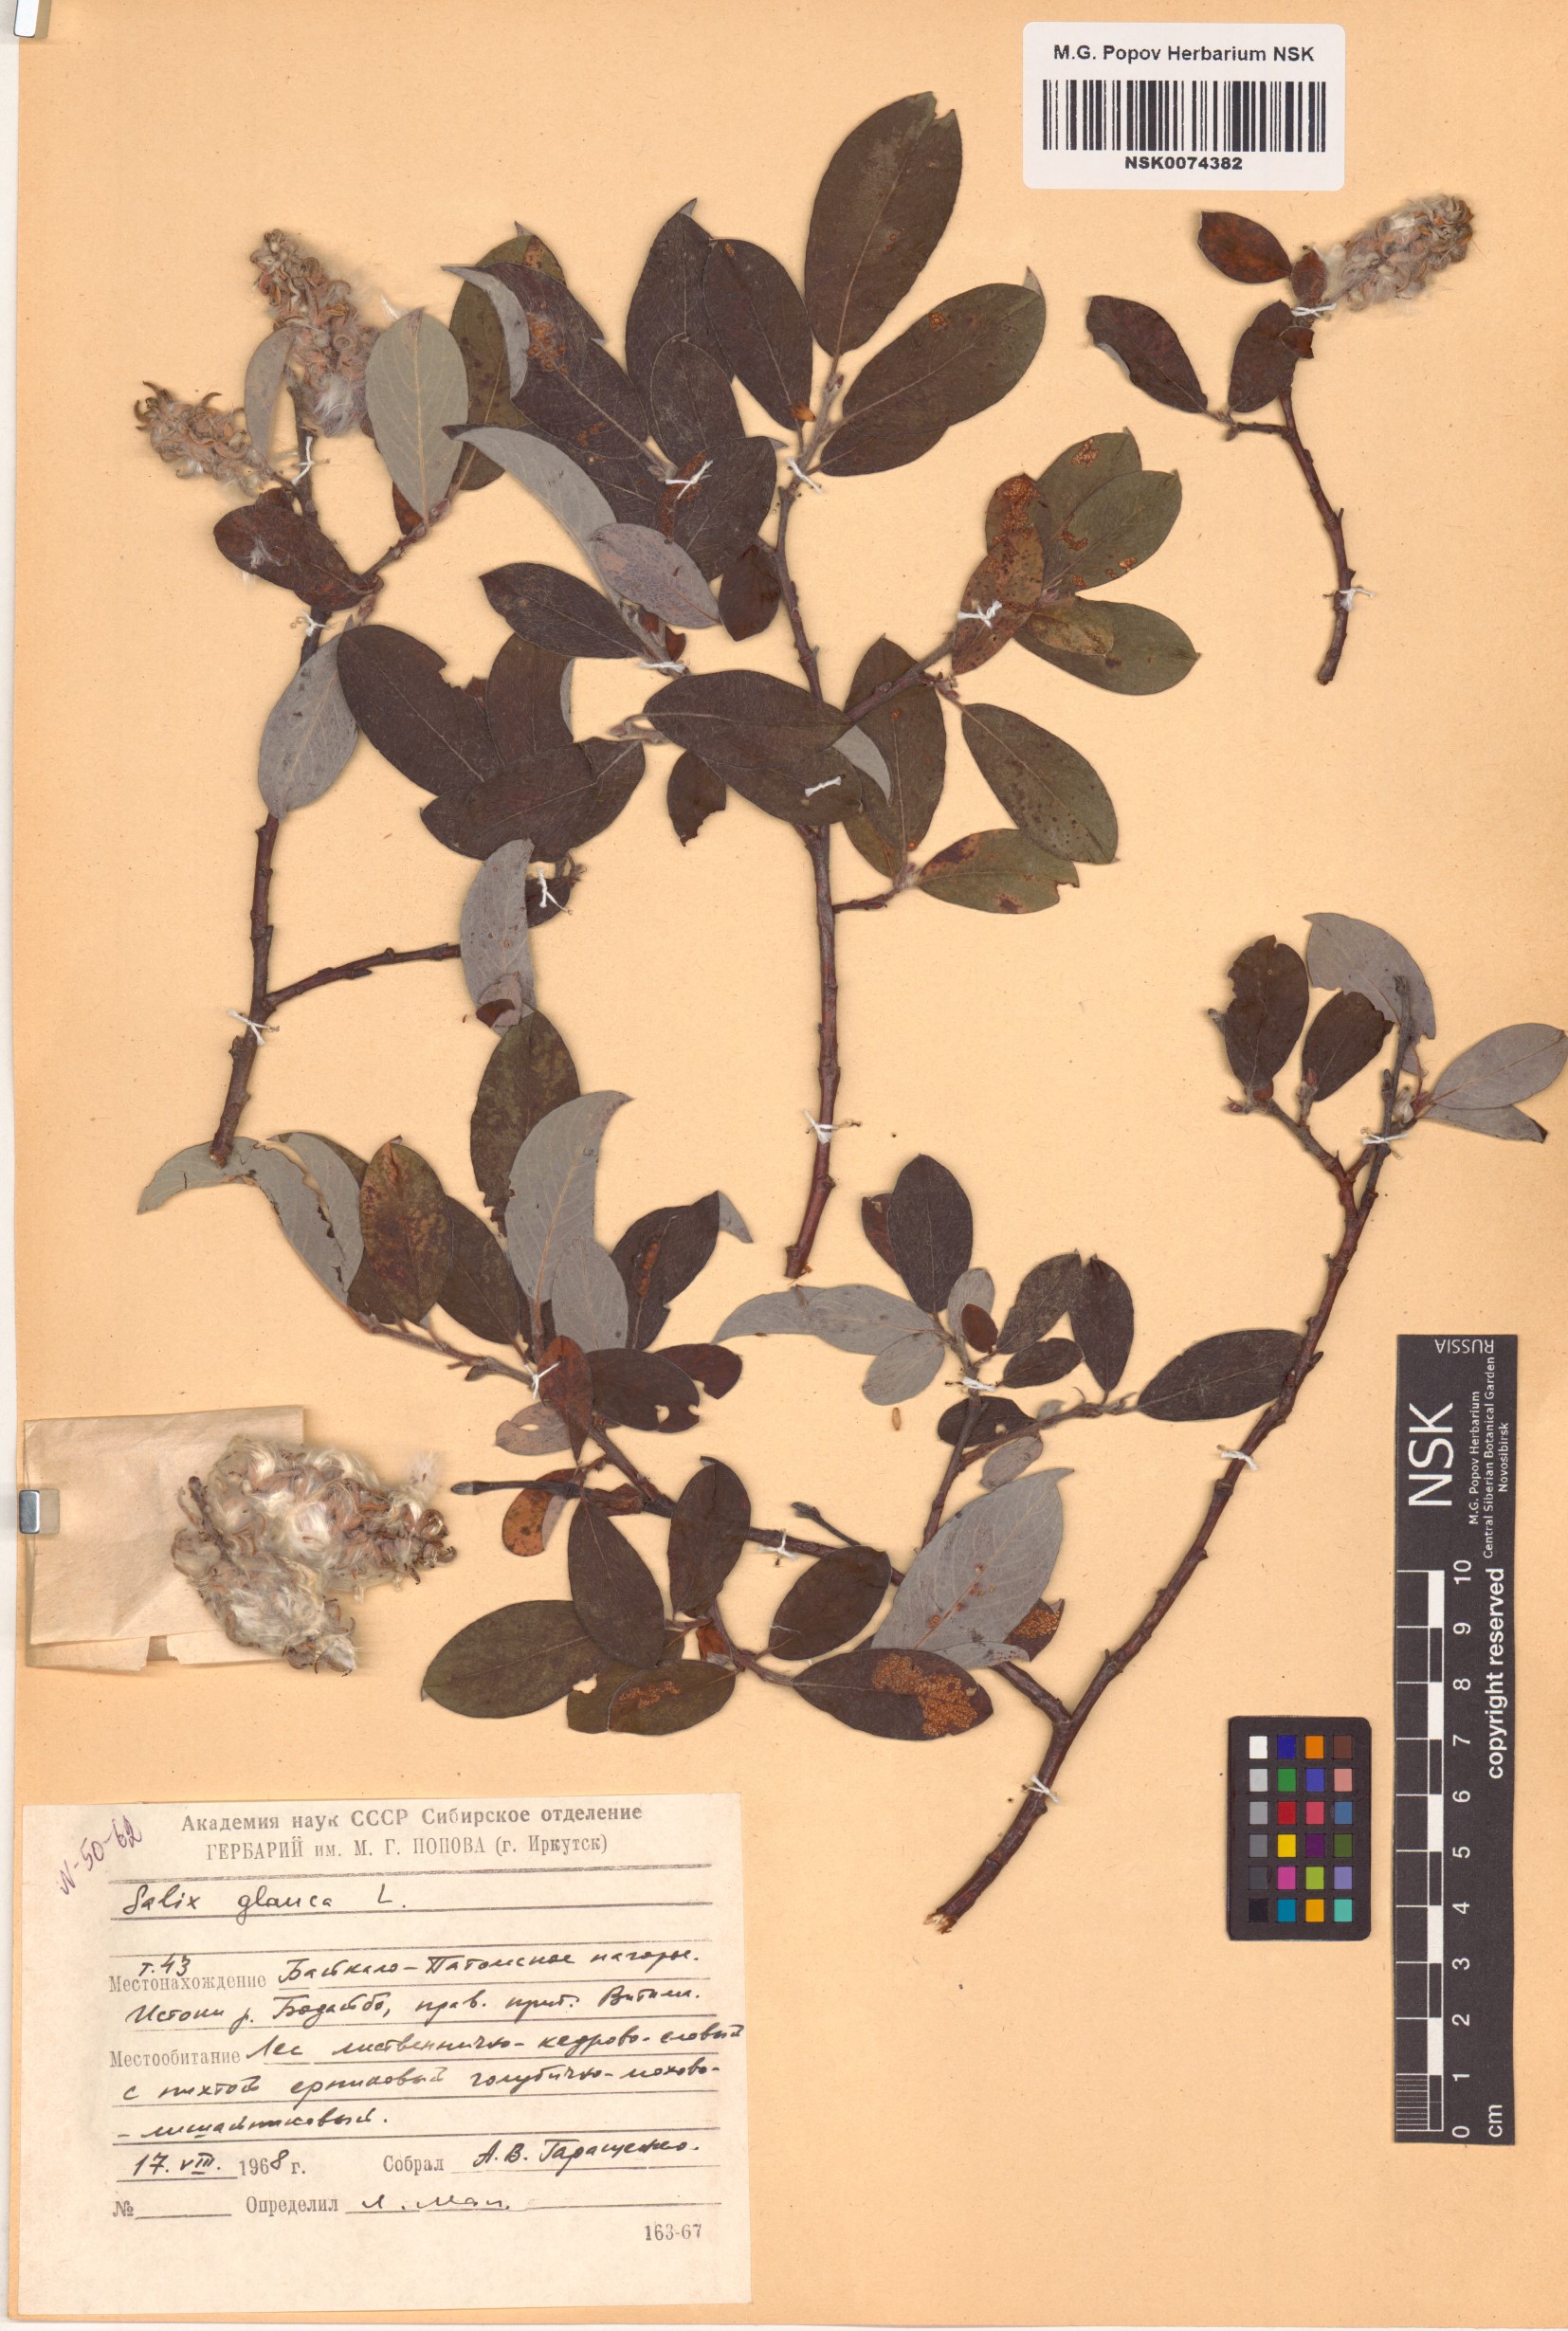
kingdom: Plantae
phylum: Tracheophyta
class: Magnoliopsida
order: Malpighiales
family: Salicaceae
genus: Salix
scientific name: Salix glauca
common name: Glaucous willow
